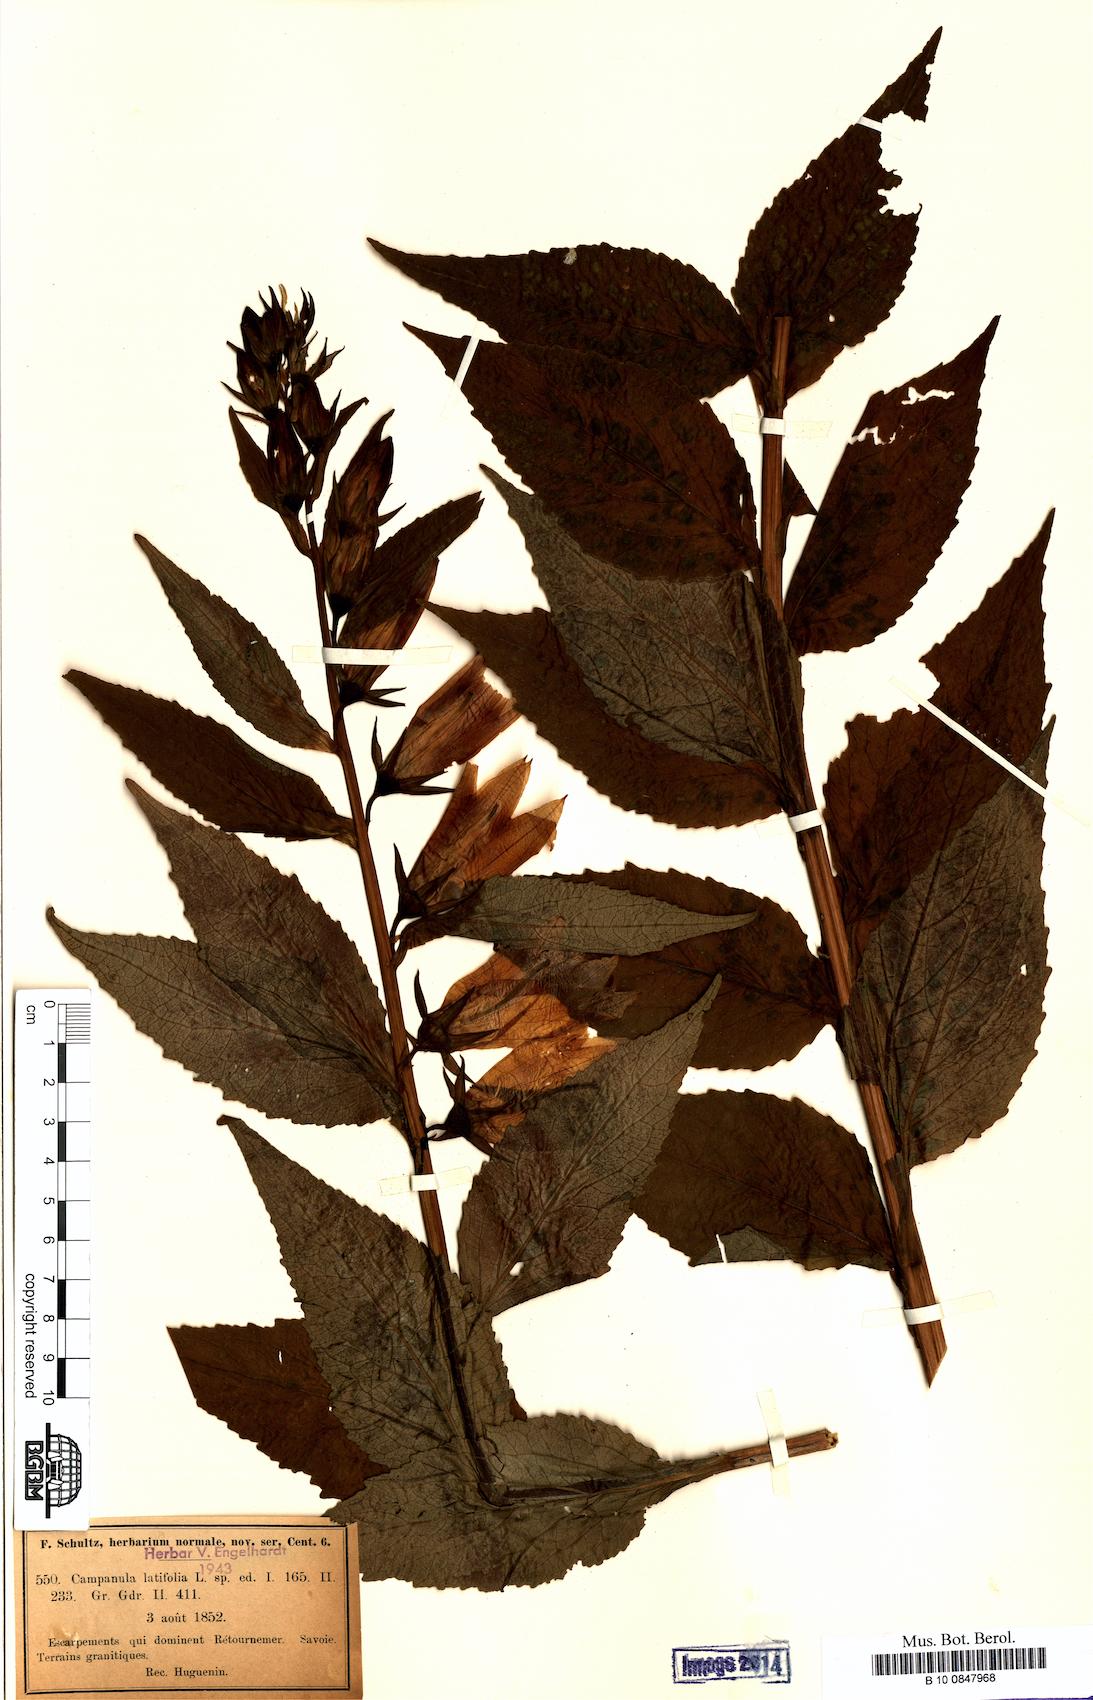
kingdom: Plantae
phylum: Tracheophyta
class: Magnoliopsida
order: Asterales
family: Campanulaceae
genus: Campanula
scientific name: Campanula latifolia
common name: Giant bellflower
